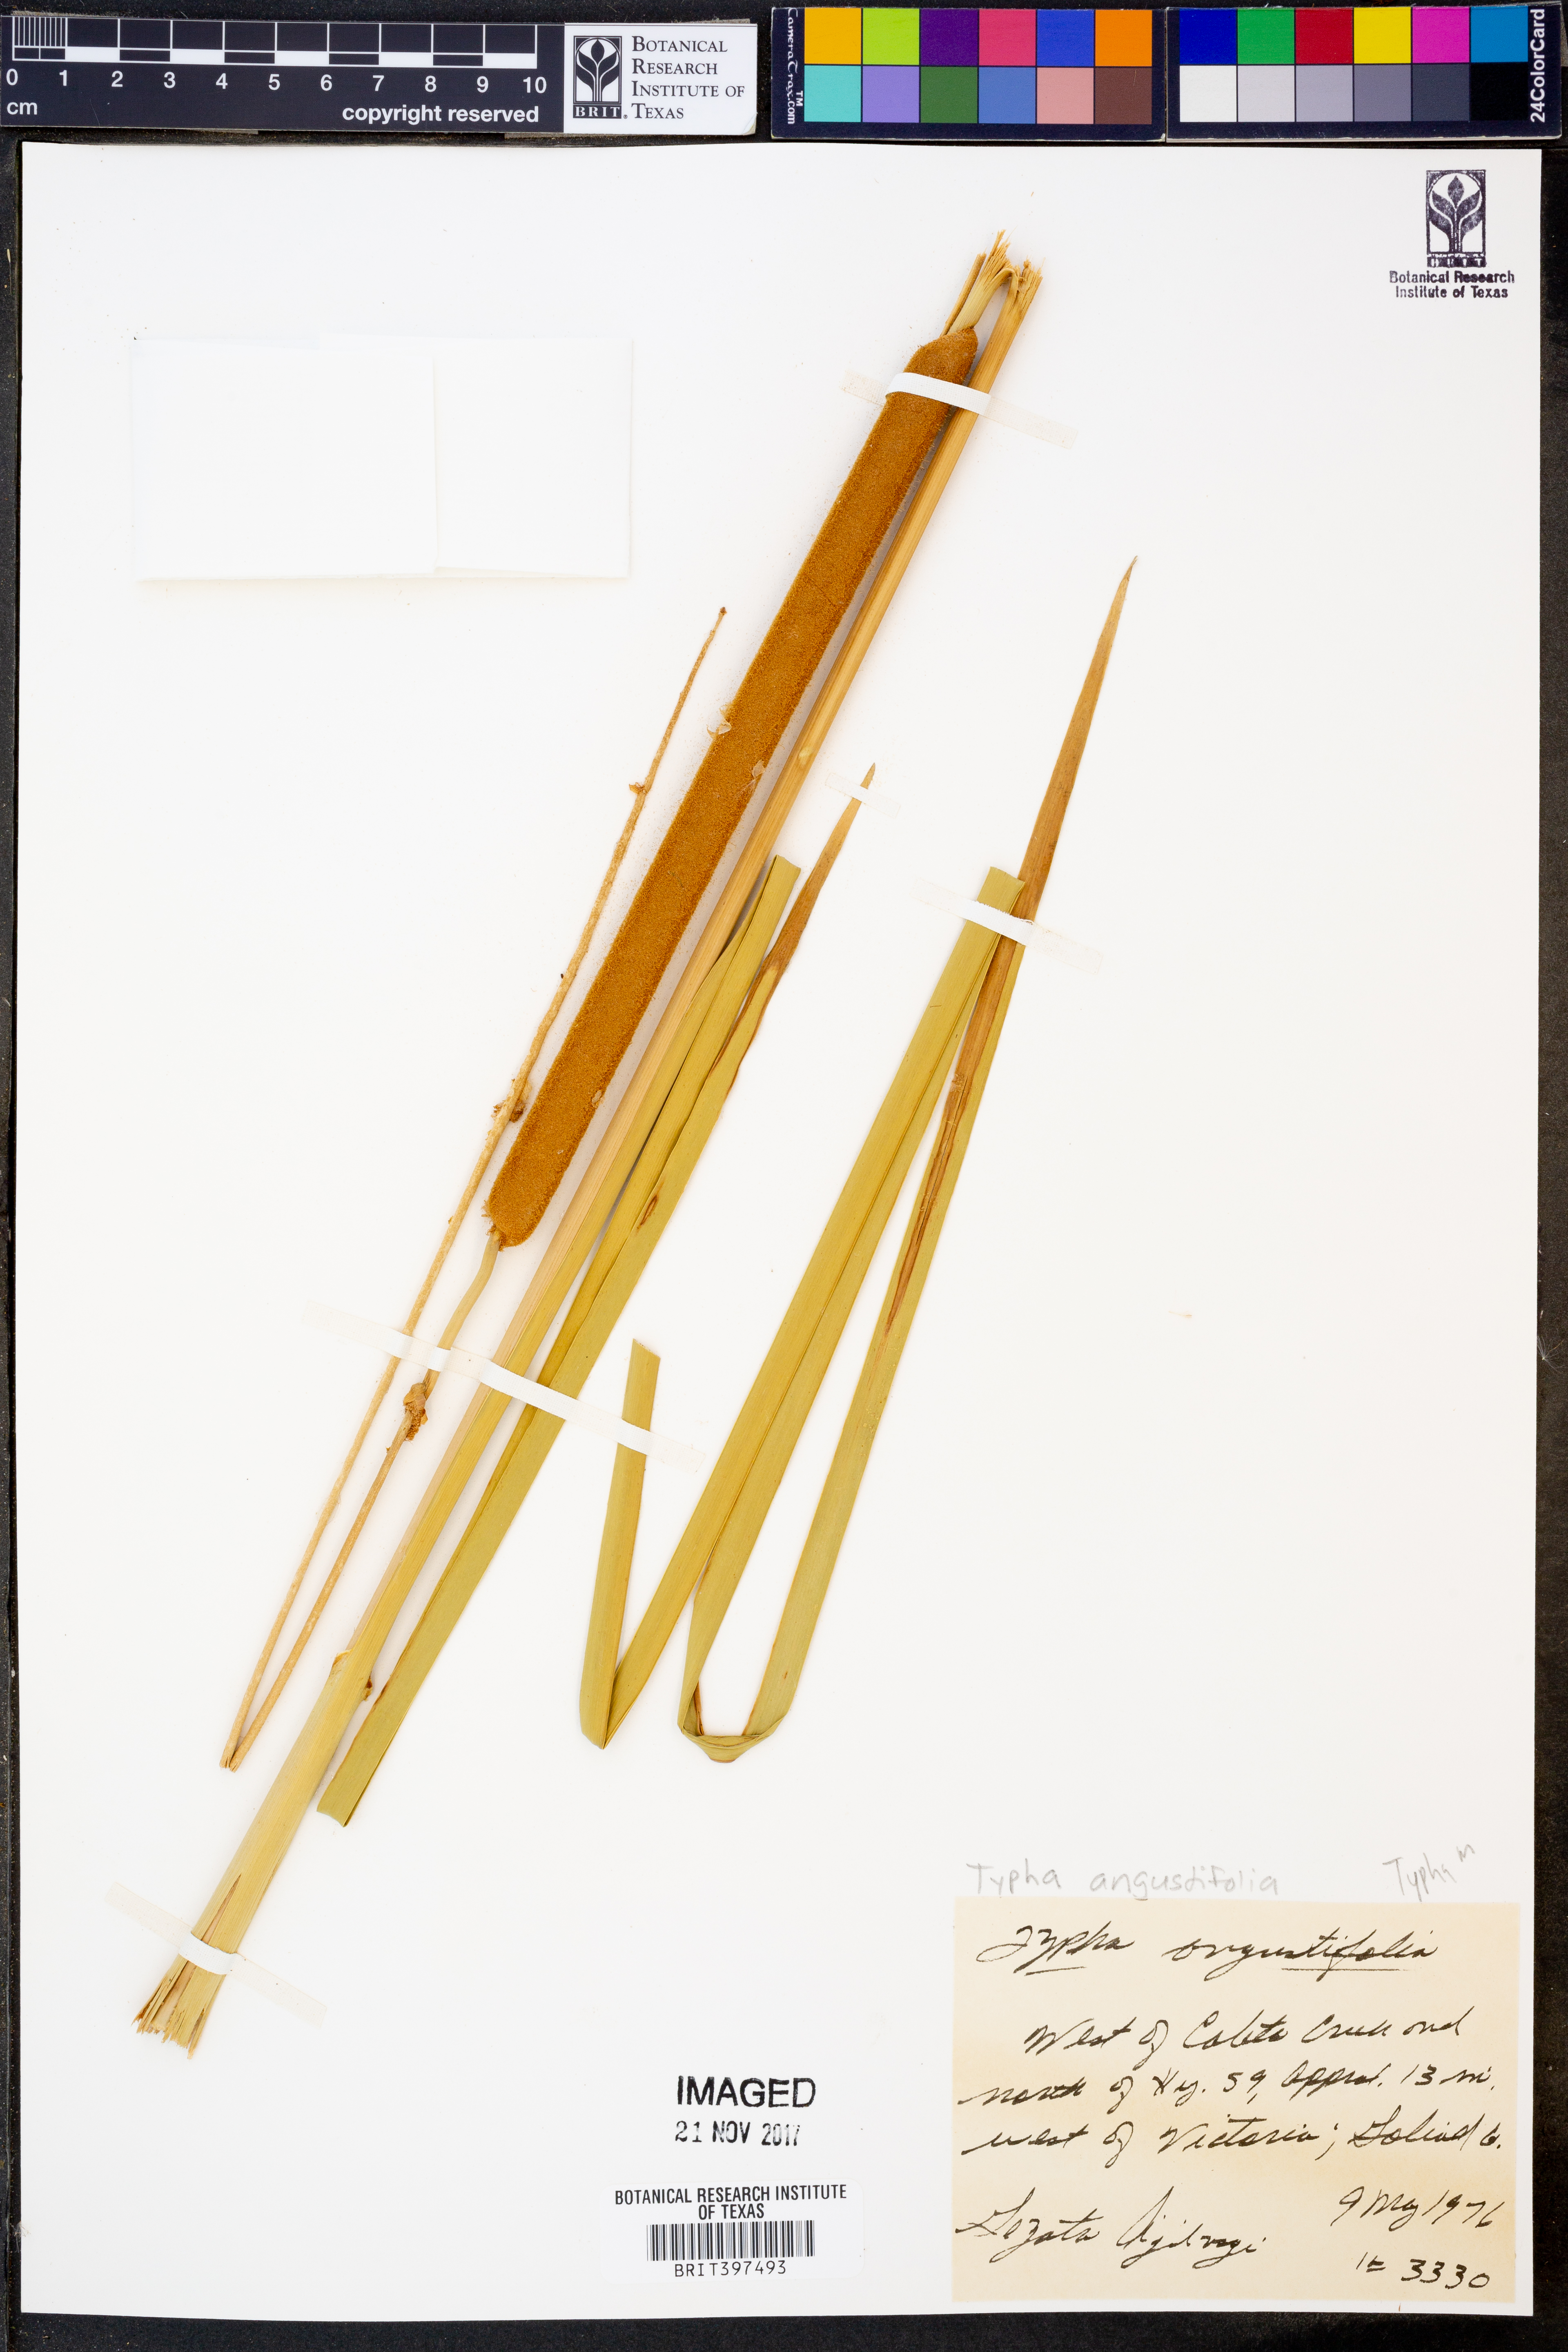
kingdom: Plantae
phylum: Tracheophyta
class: Liliopsida
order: Poales
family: Typhaceae
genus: Typha
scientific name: Typha angustifolia
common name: Lesser bulrush
